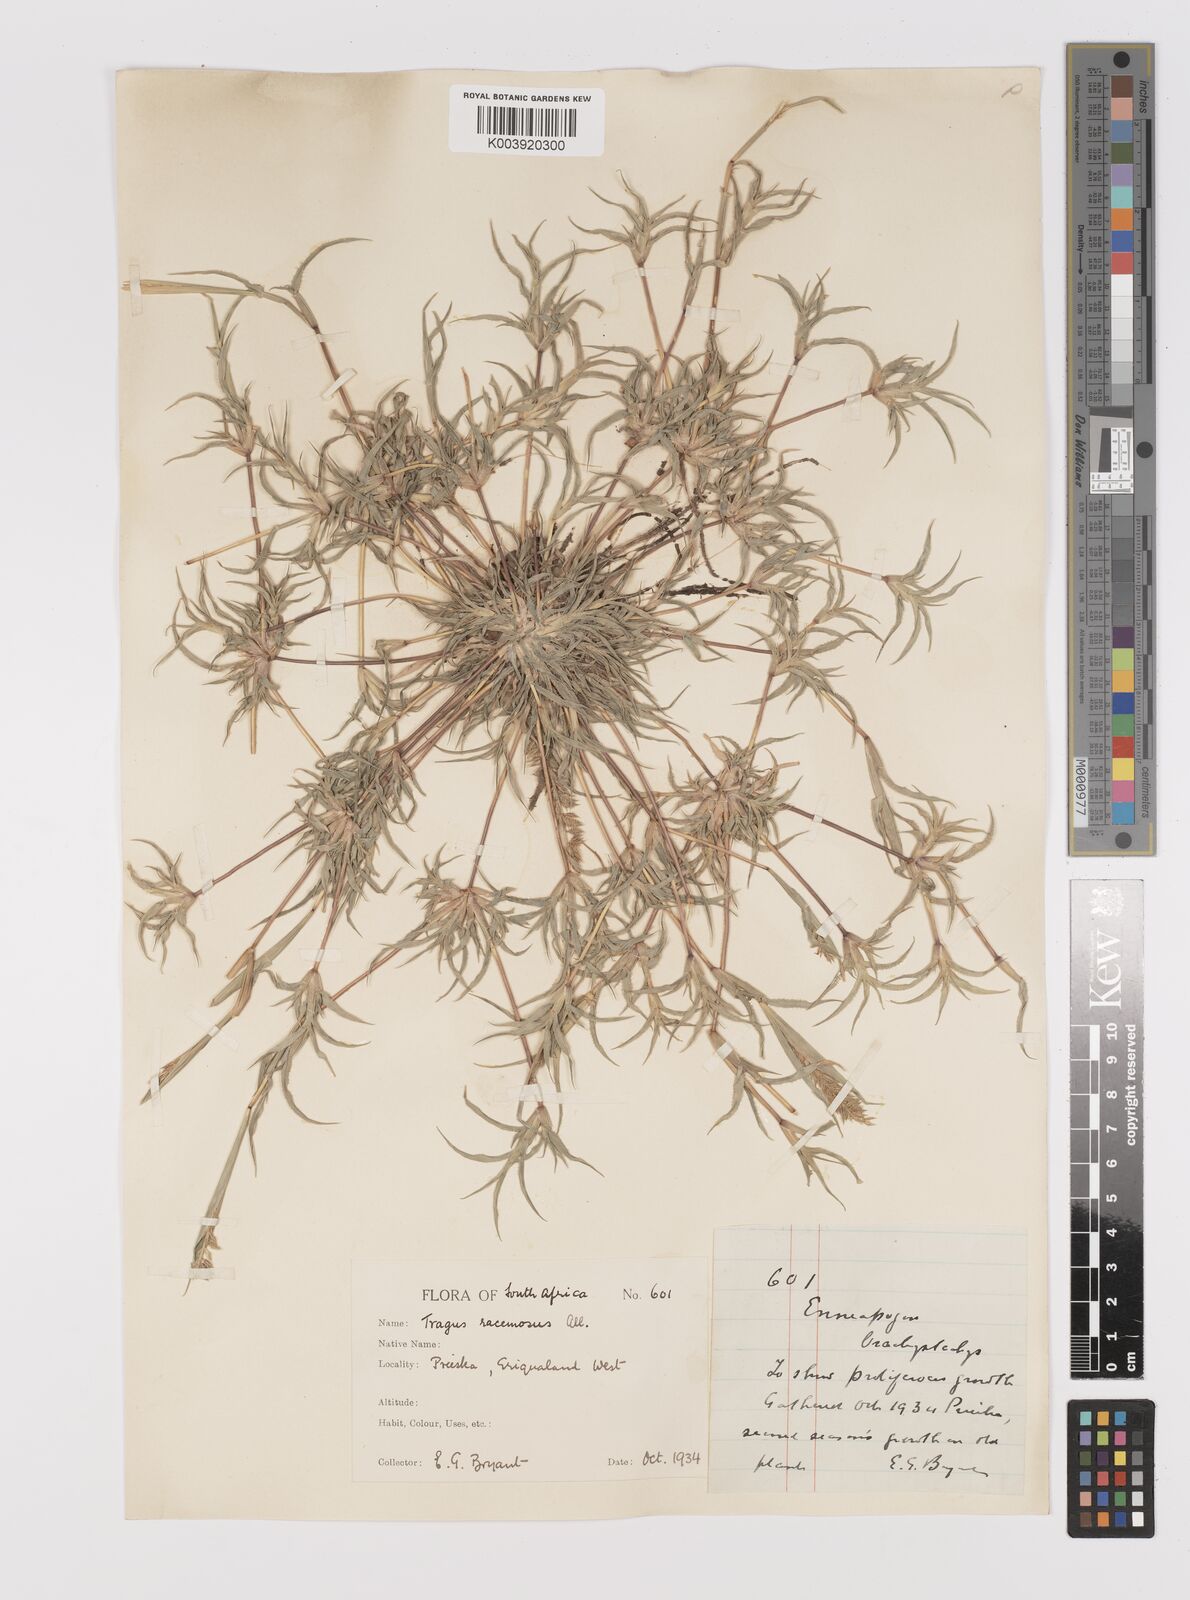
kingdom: Plantae
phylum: Tracheophyta
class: Liliopsida
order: Poales
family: Poaceae
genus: Tragus
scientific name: Tragus racemosus
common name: European bur-grass
